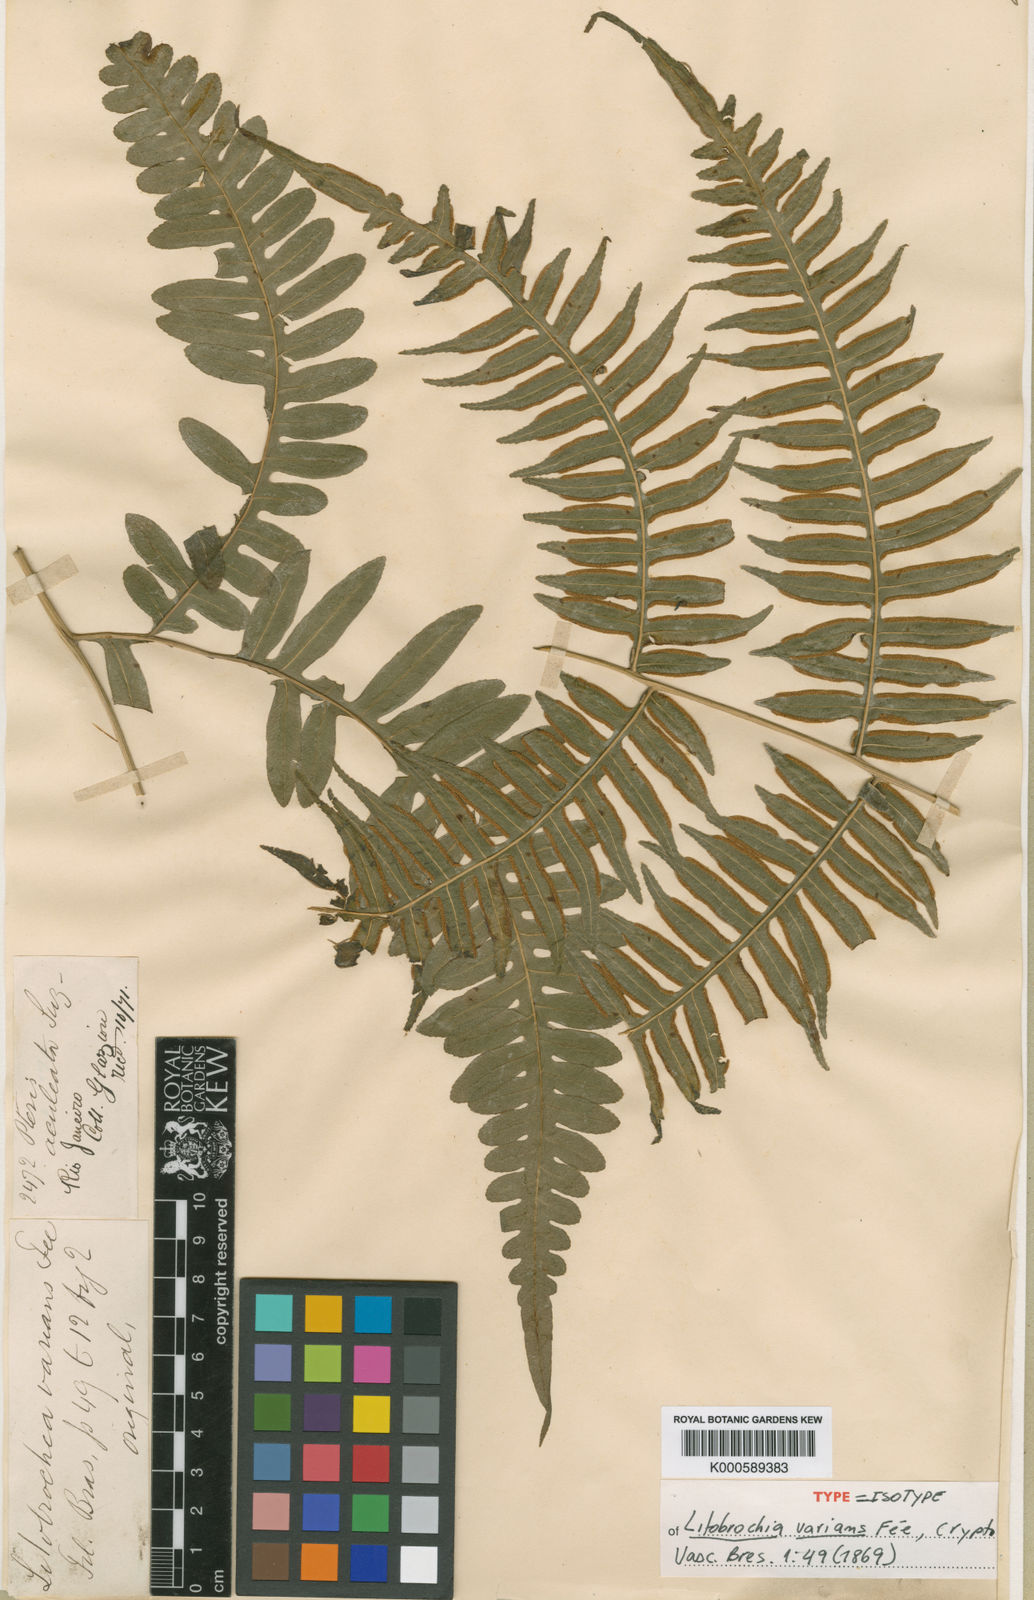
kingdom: Plantae
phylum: Tracheophyta
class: Polypodiopsida
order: Polypodiales
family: Pteridaceae
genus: Oeosporangium
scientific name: Oeosporangium belangeri
